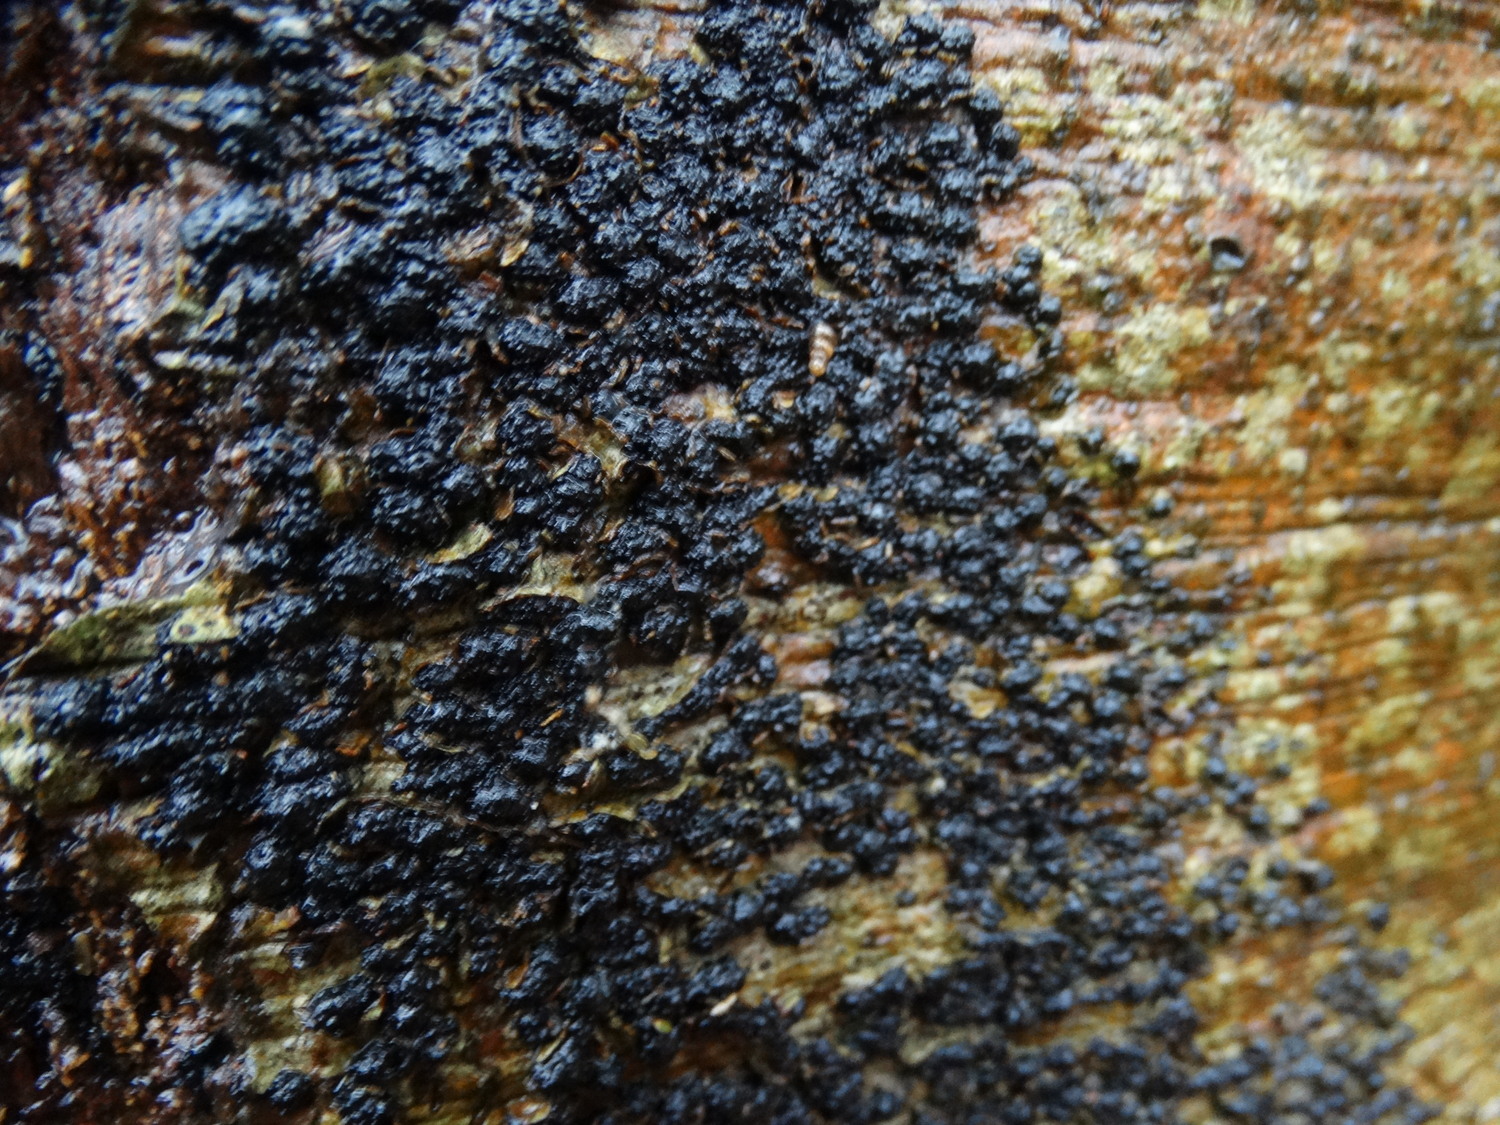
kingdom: Fungi
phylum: Ascomycota
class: Sordariomycetes
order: Xylariales
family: Melogrammataceae
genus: Melogramma
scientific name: Melogramma spiniferum
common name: bøgefod-kulhals
